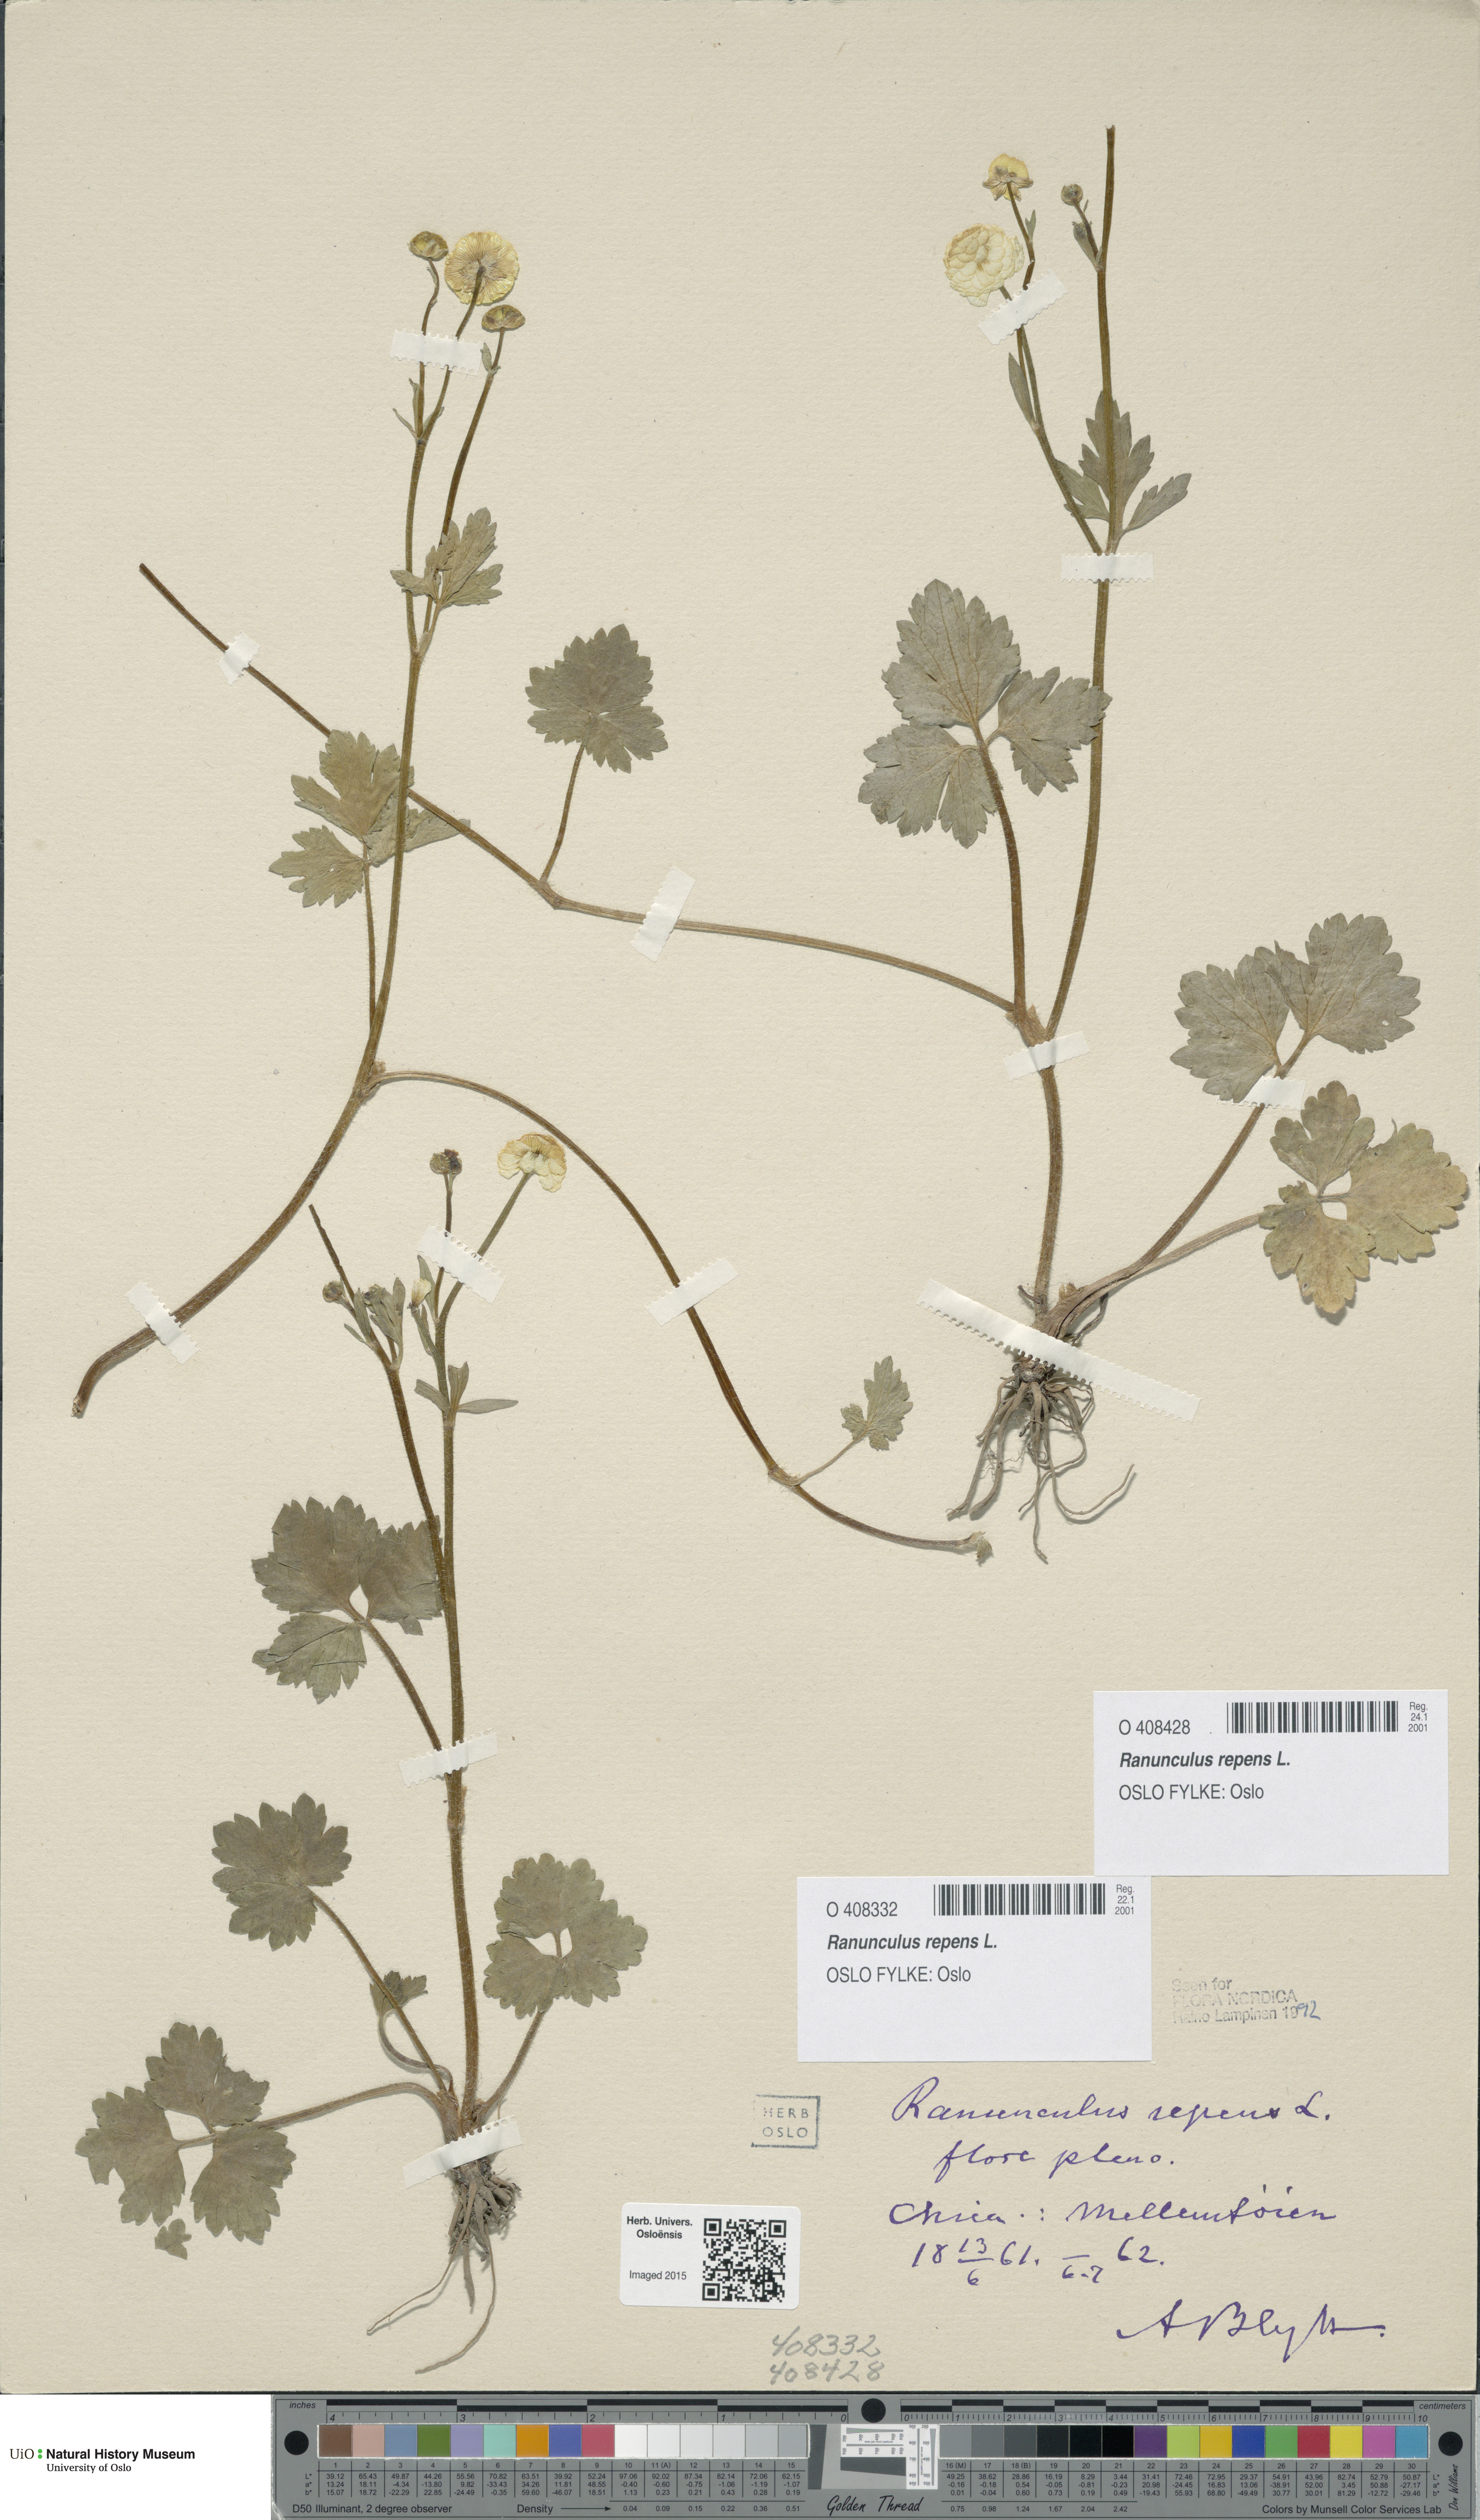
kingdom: Plantae
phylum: Tracheophyta
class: Magnoliopsida
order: Ranunculales
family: Ranunculaceae
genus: Ranunculus
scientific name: Ranunculus repens
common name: Creeping buttercup
